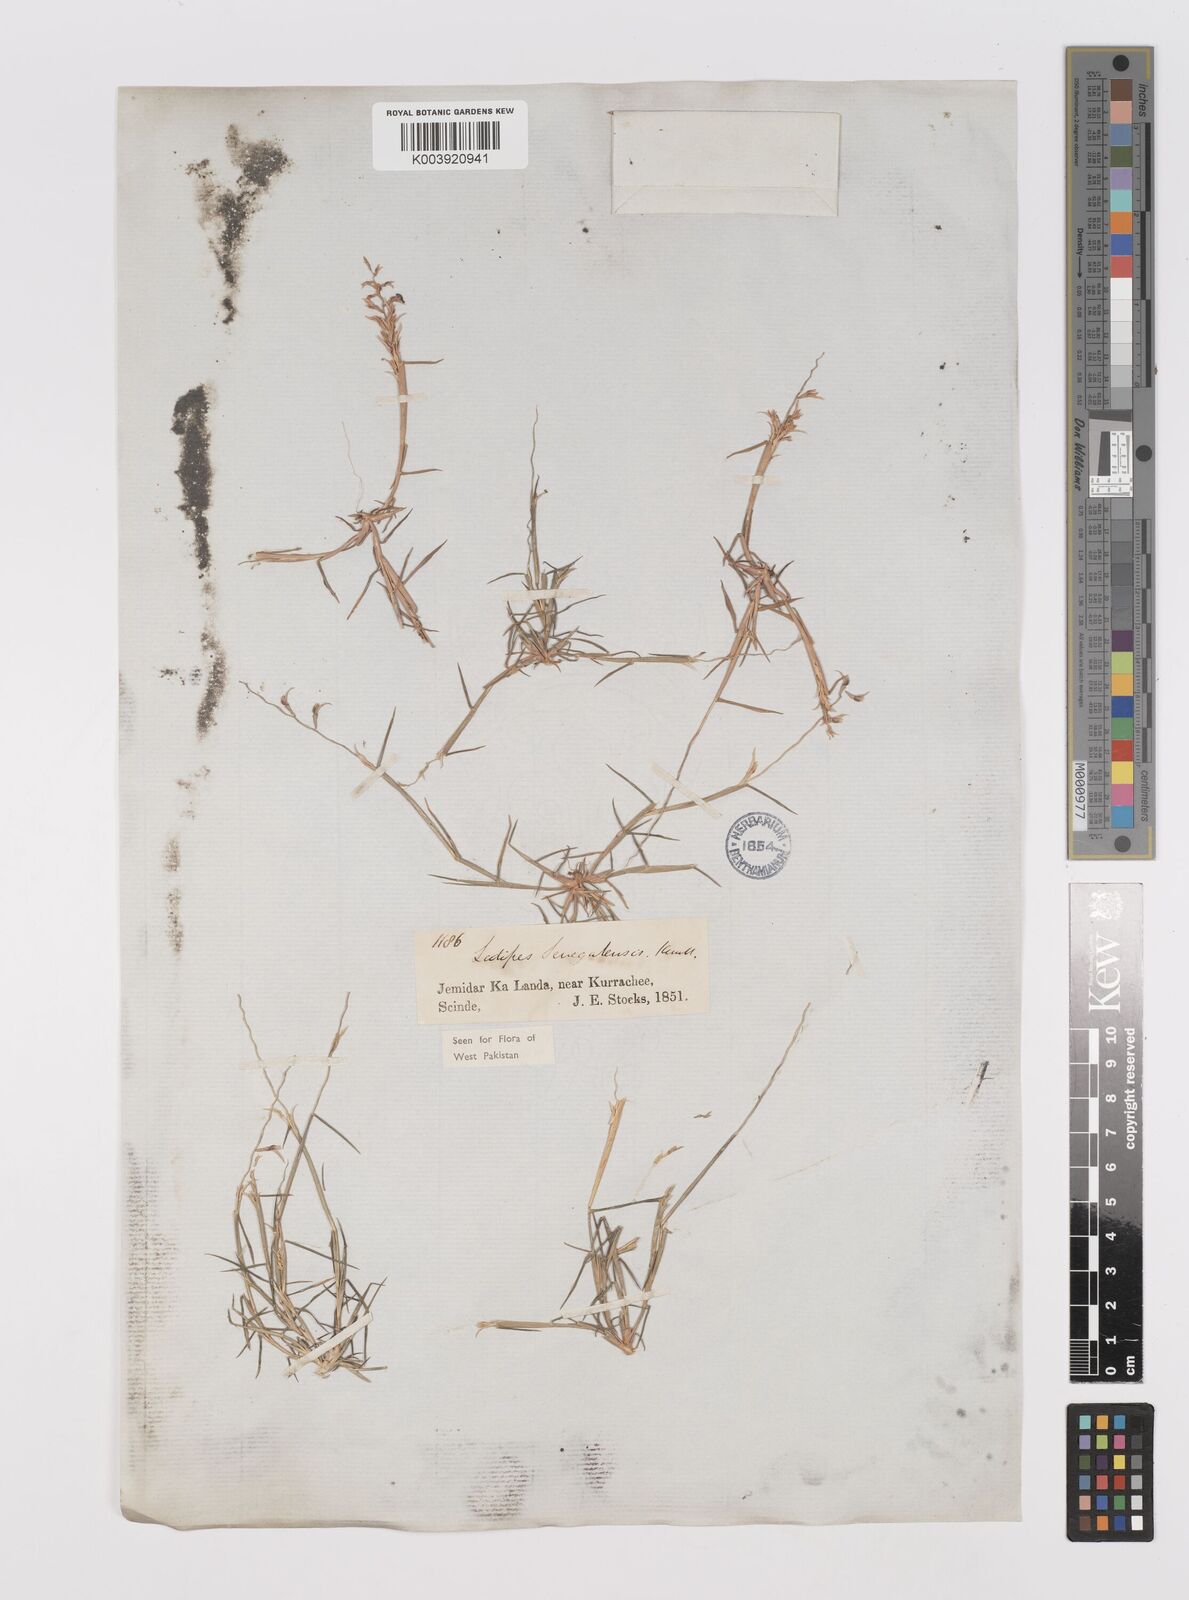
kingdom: Plantae
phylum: Tracheophyta
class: Liliopsida
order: Poales
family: Poaceae
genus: Leptothrium
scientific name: Leptothrium senegalense
